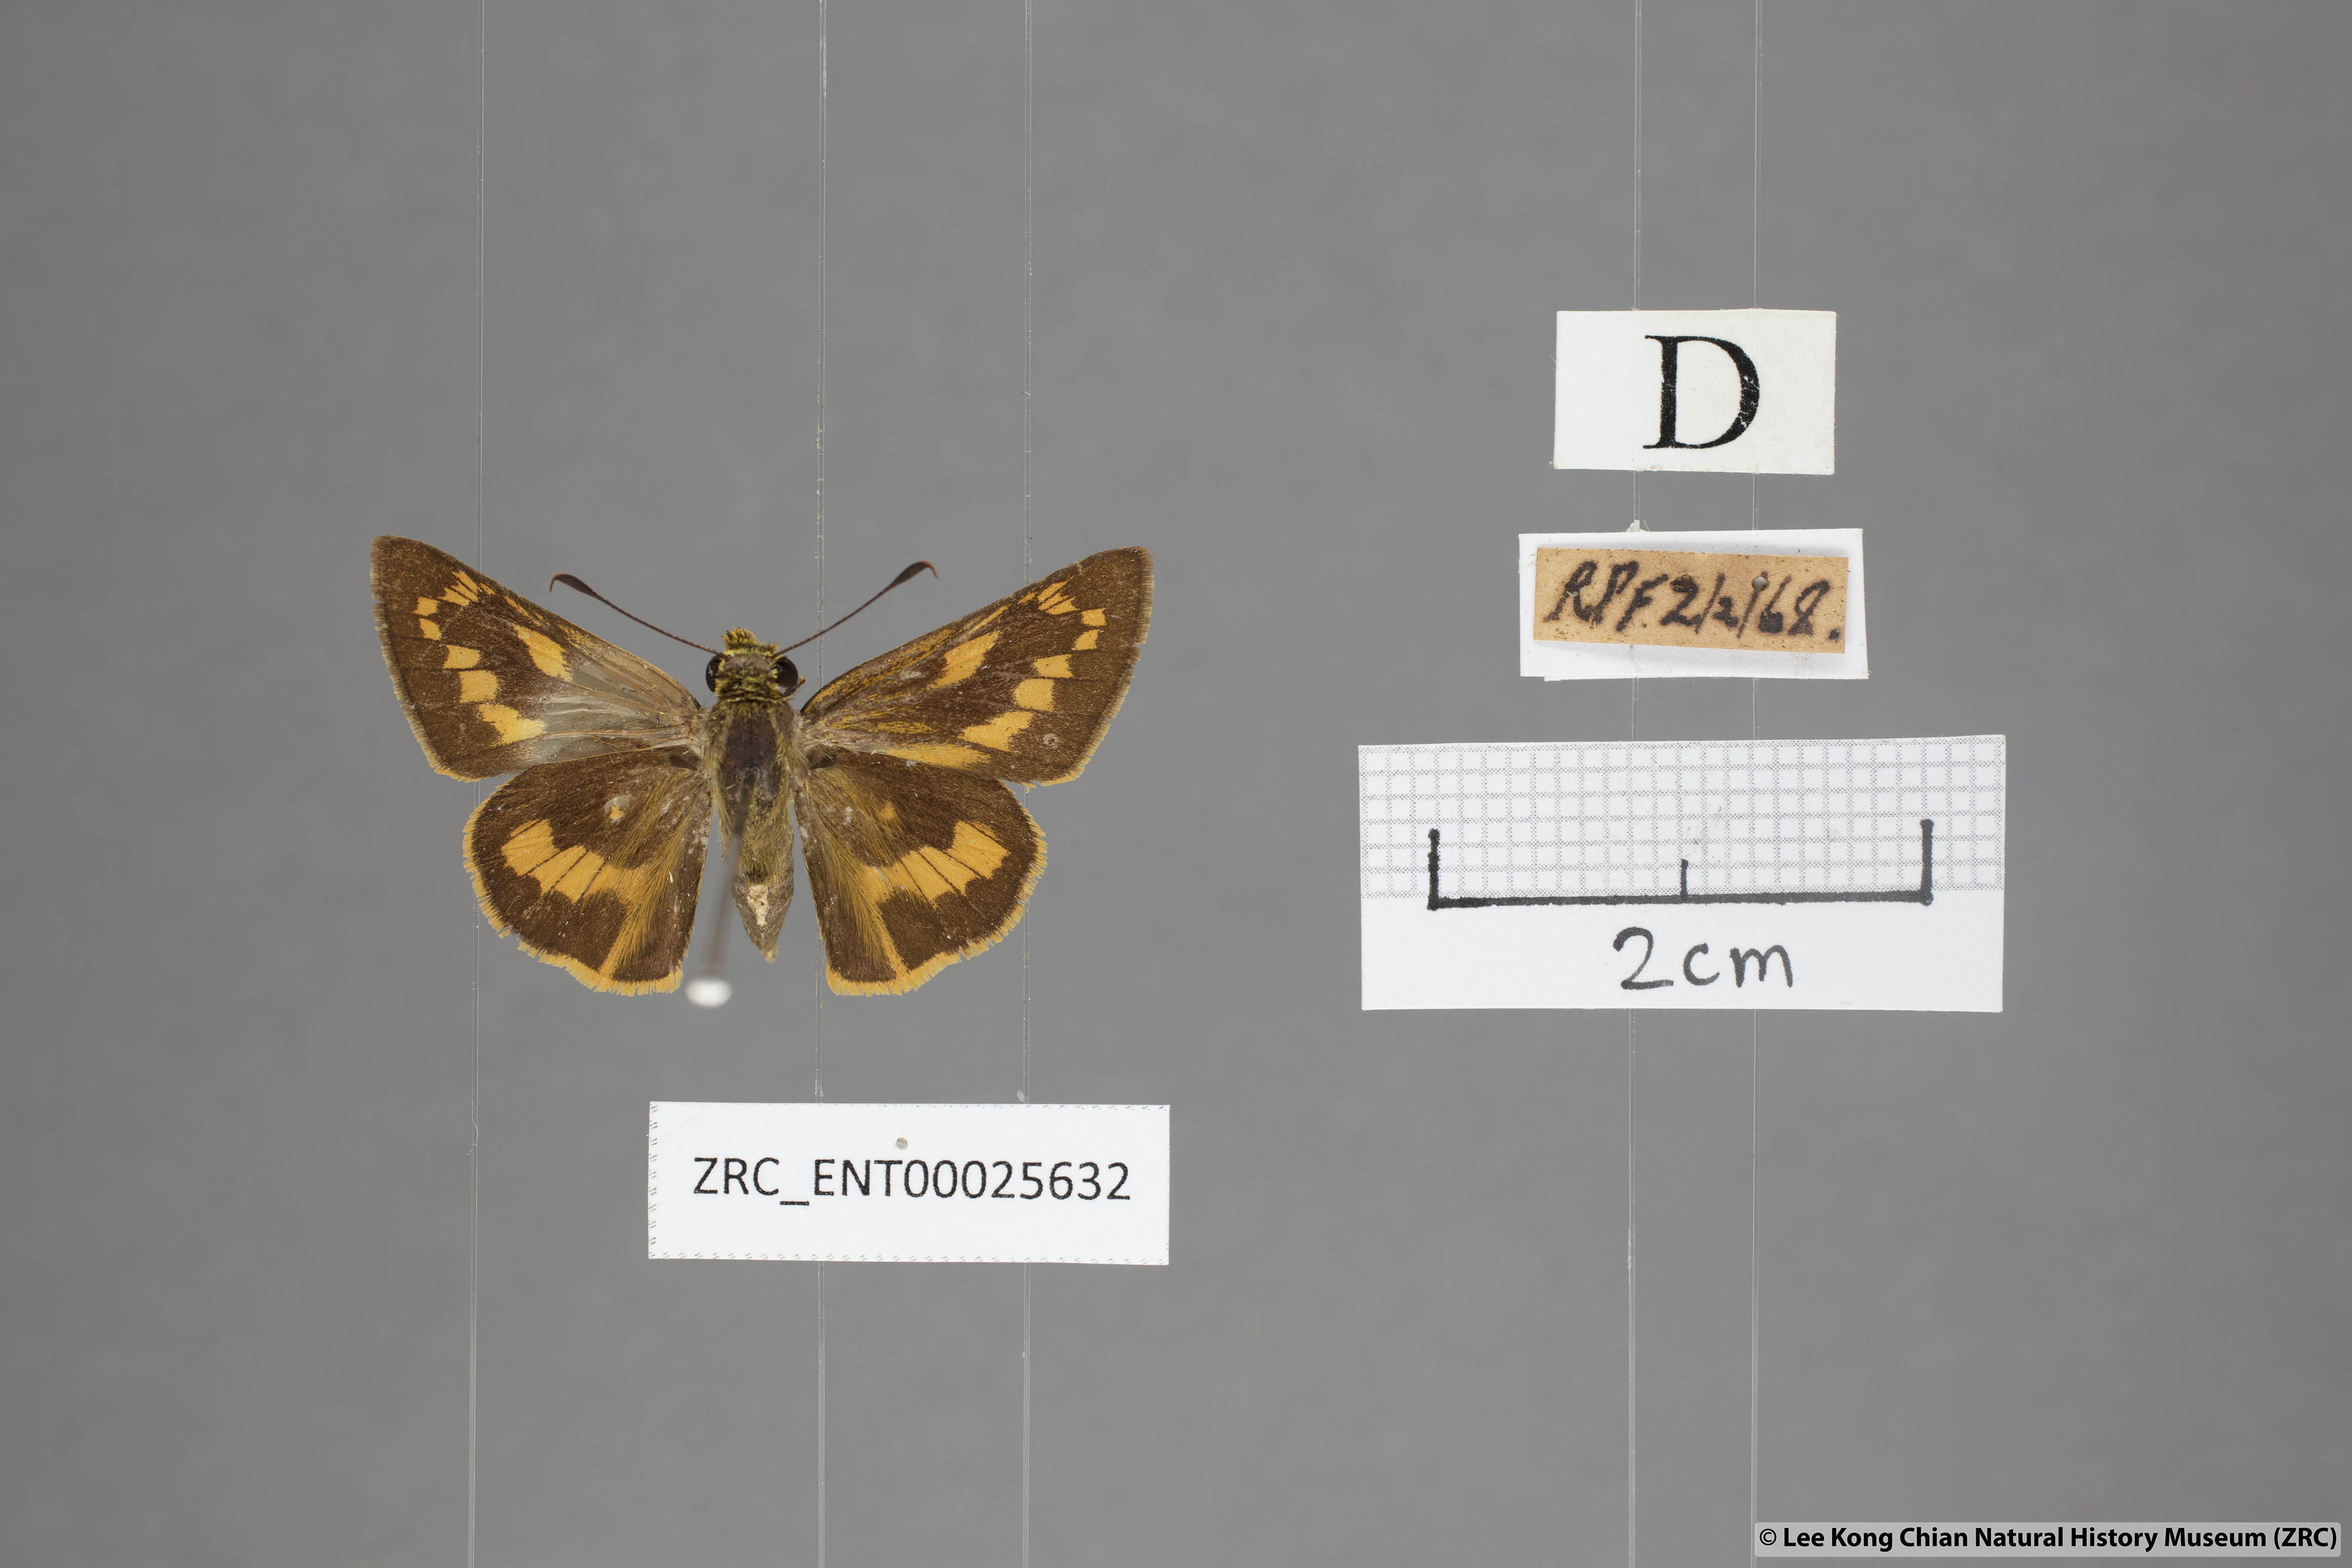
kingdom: Animalia
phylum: Arthropoda
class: Insecta
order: Lepidoptera
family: Hesperiidae
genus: Telicota
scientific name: Telicota augias
